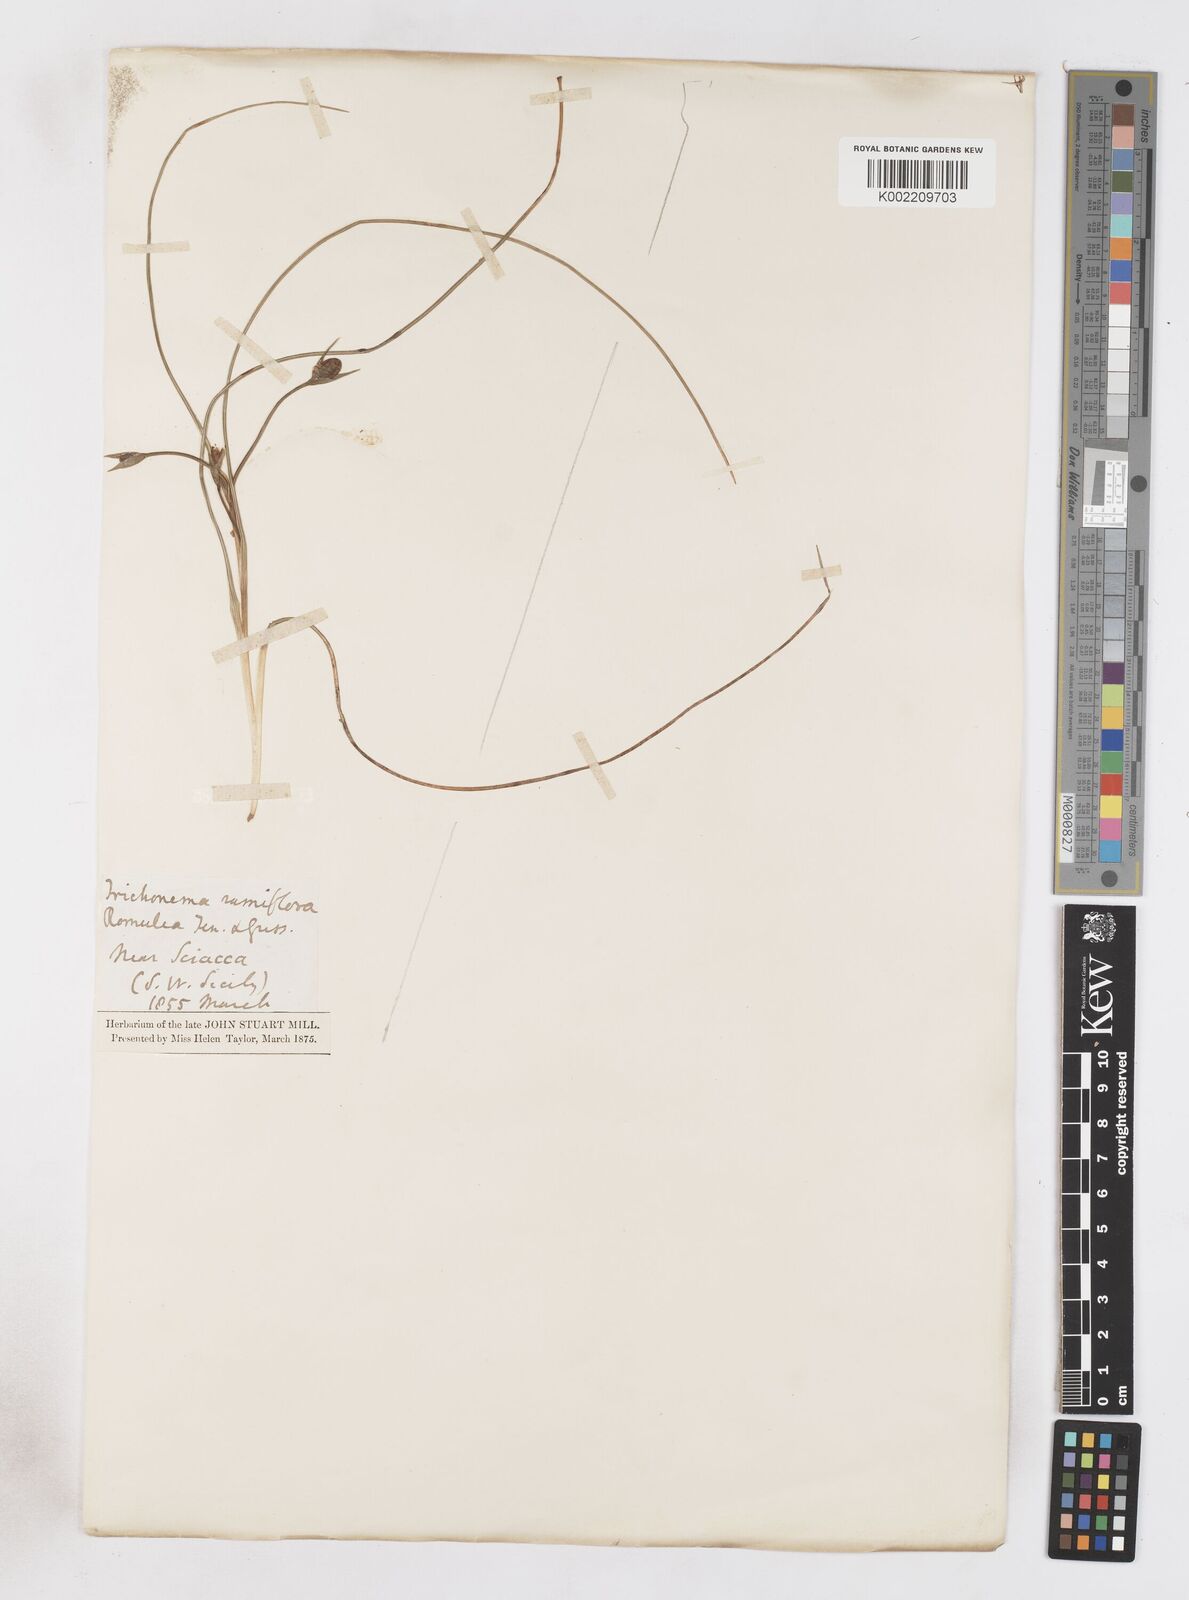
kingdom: Plantae
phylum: Tracheophyta
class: Liliopsida
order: Asparagales
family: Iridaceae
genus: Romulea
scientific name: Romulea ramiflora
